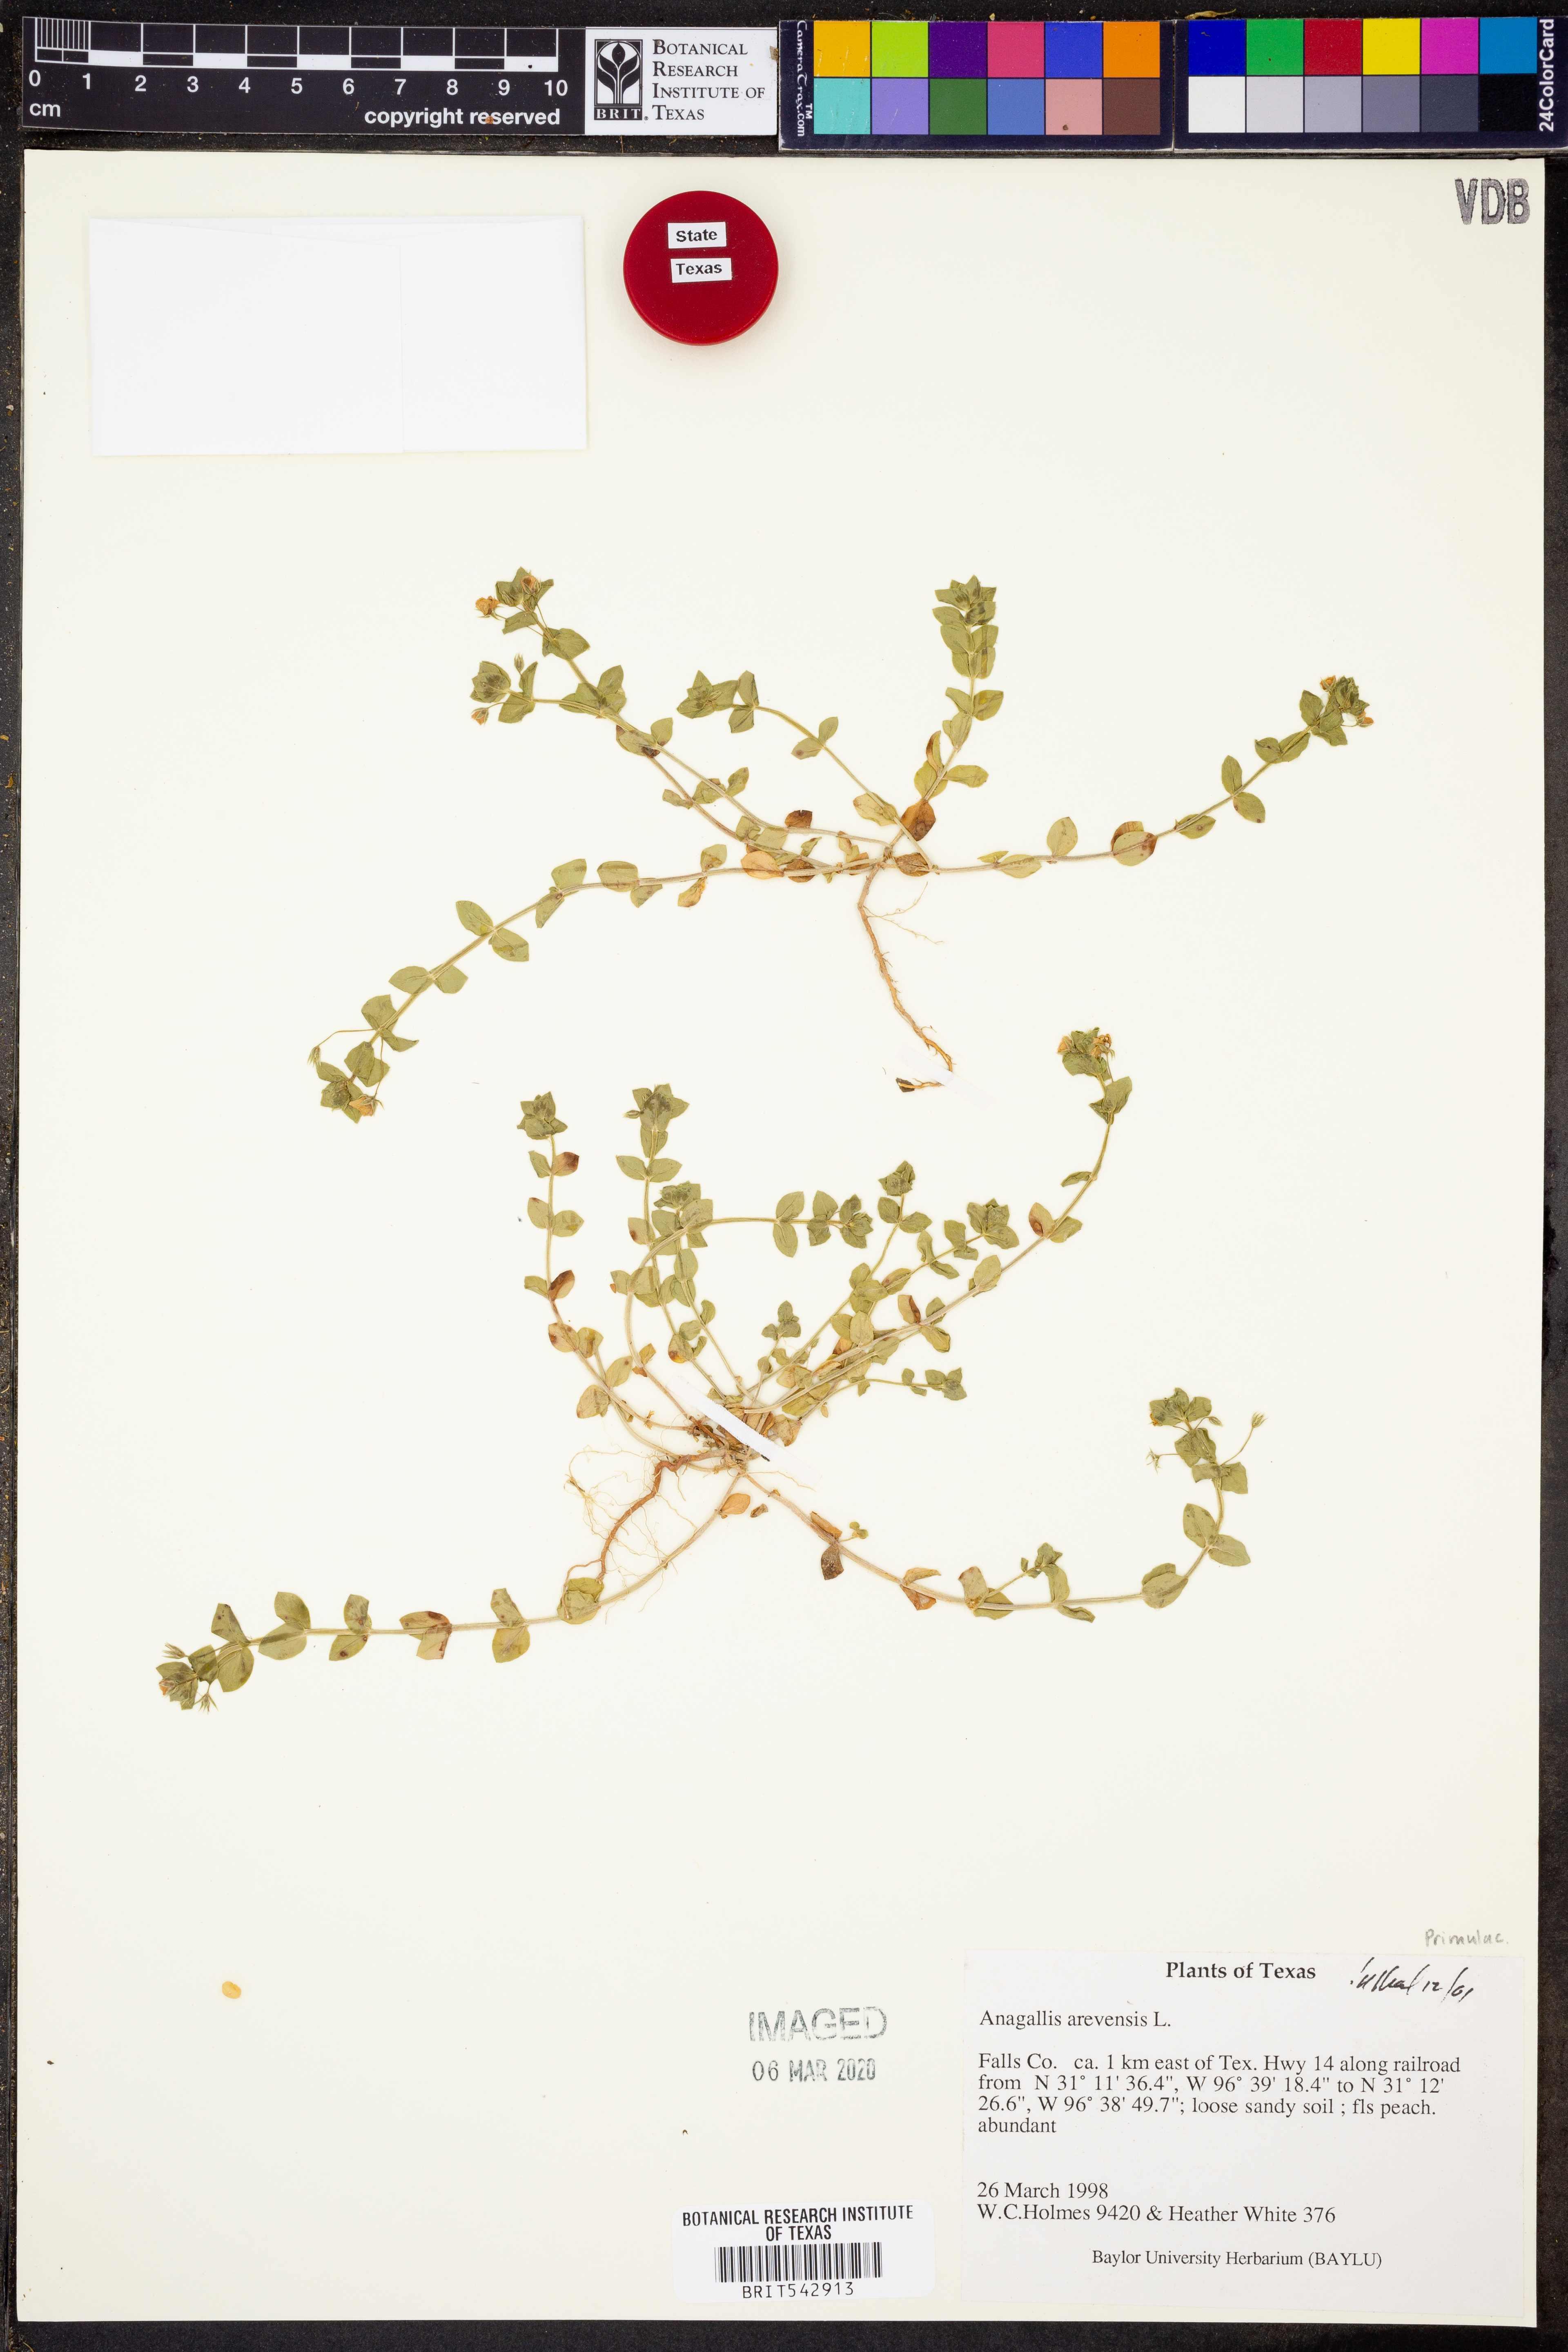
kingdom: Plantae
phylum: Tracheophyta
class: Magnoliopsida
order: Ericales
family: Primulaceae
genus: Lysimachia
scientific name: Lysimachia arvensis
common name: Scarlet pimpernel
